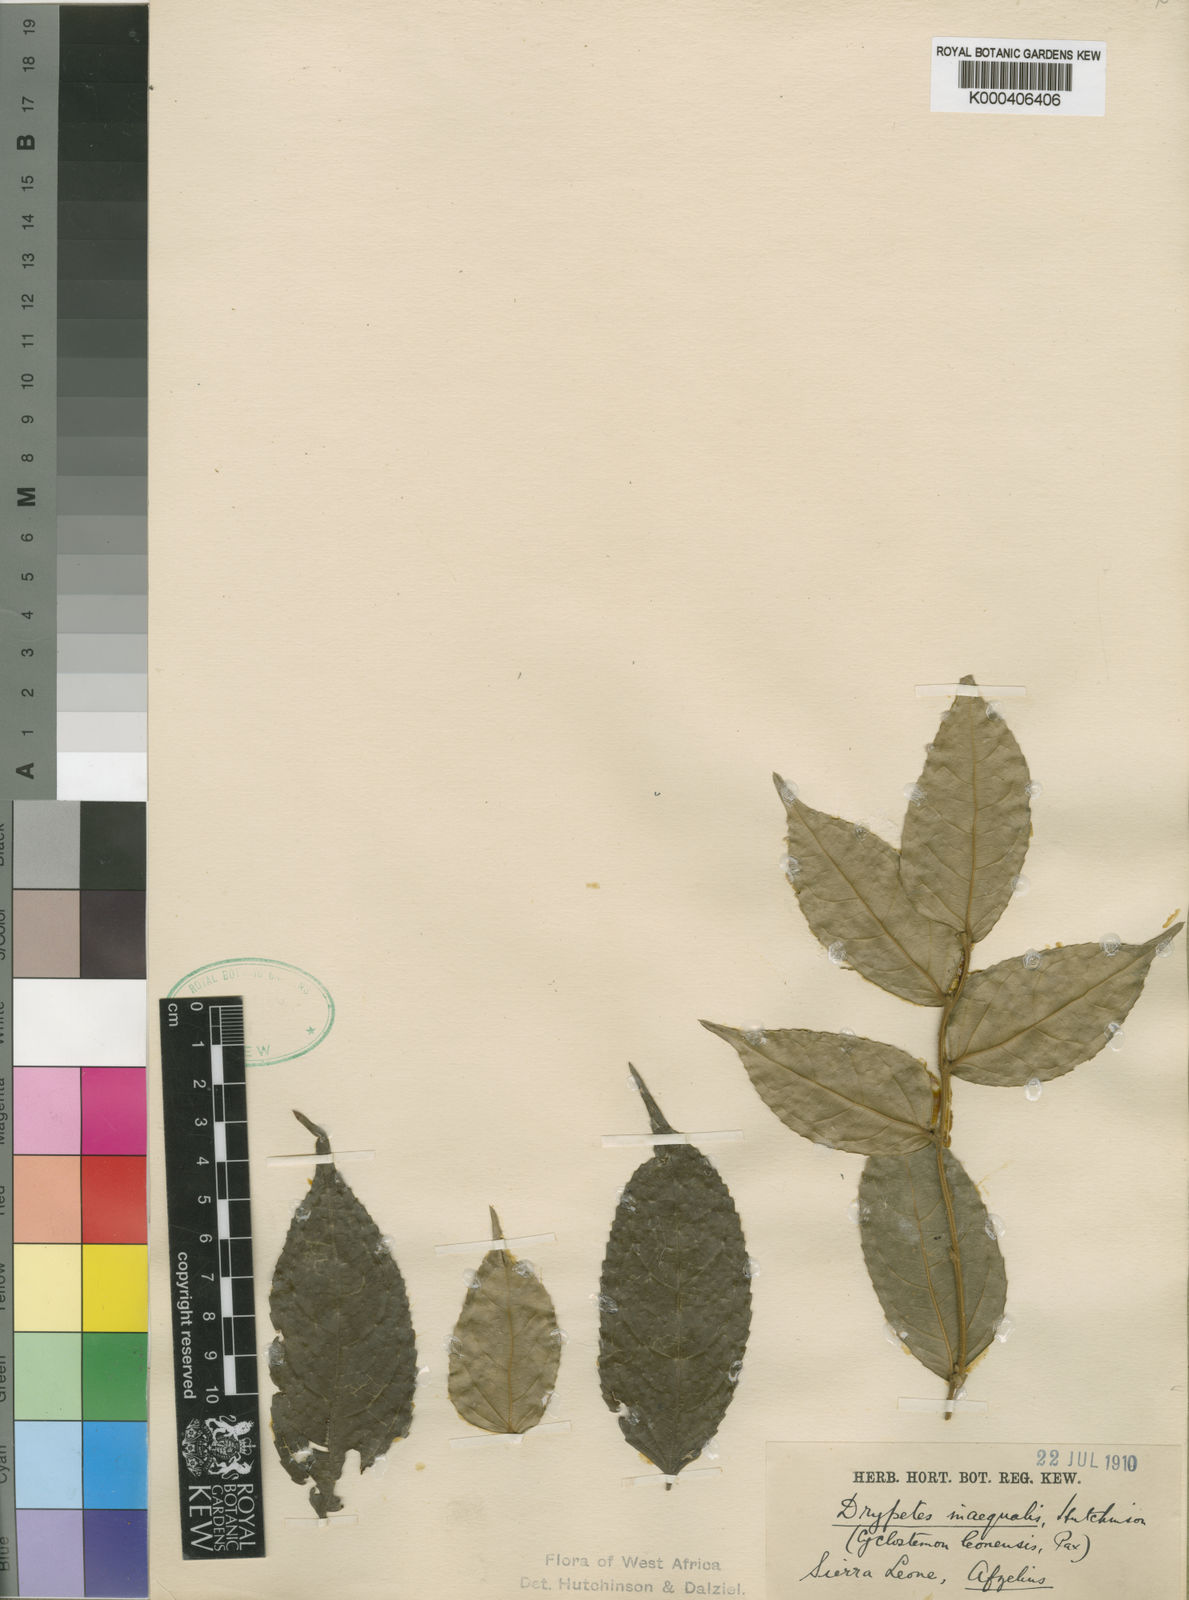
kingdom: Plantae
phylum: Tracheophyta
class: Magnoliopsida
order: Malpighiales
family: Putranjivaceae
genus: Drypetes
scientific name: Drypetes inaequalis
